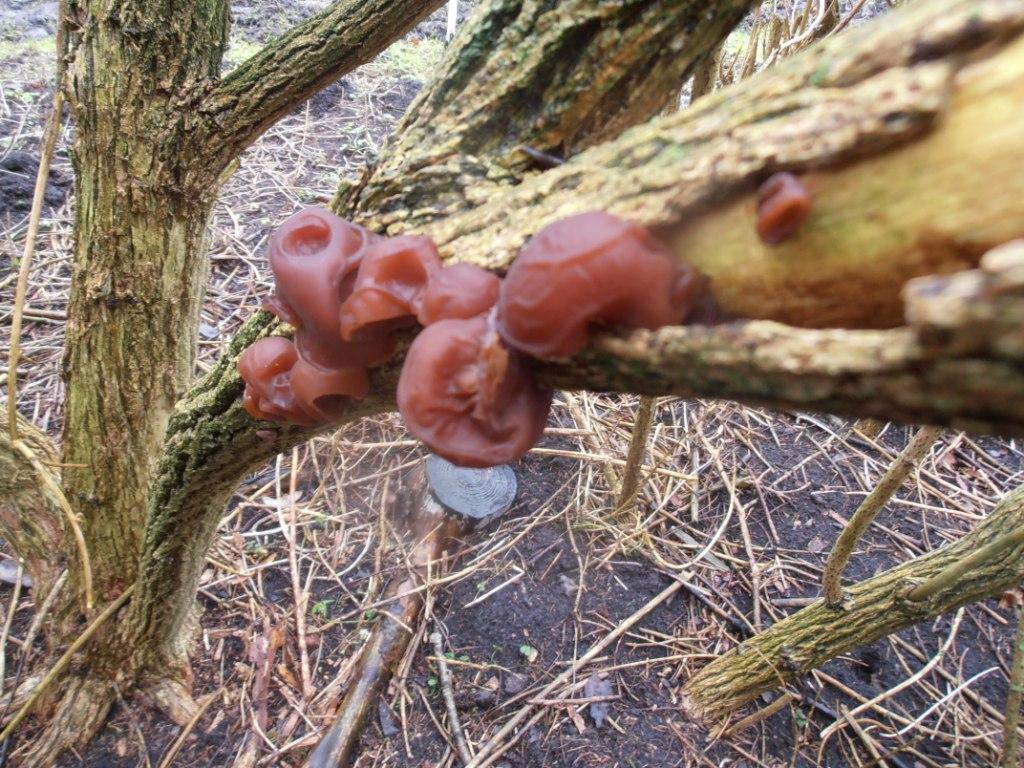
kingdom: Fungi
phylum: Basidiomycota
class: Agaricomycetes
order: Auriculariales
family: Auriculariaceae
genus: Auricularia
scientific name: Auricularia auricula-judae
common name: almindelig judasøre
